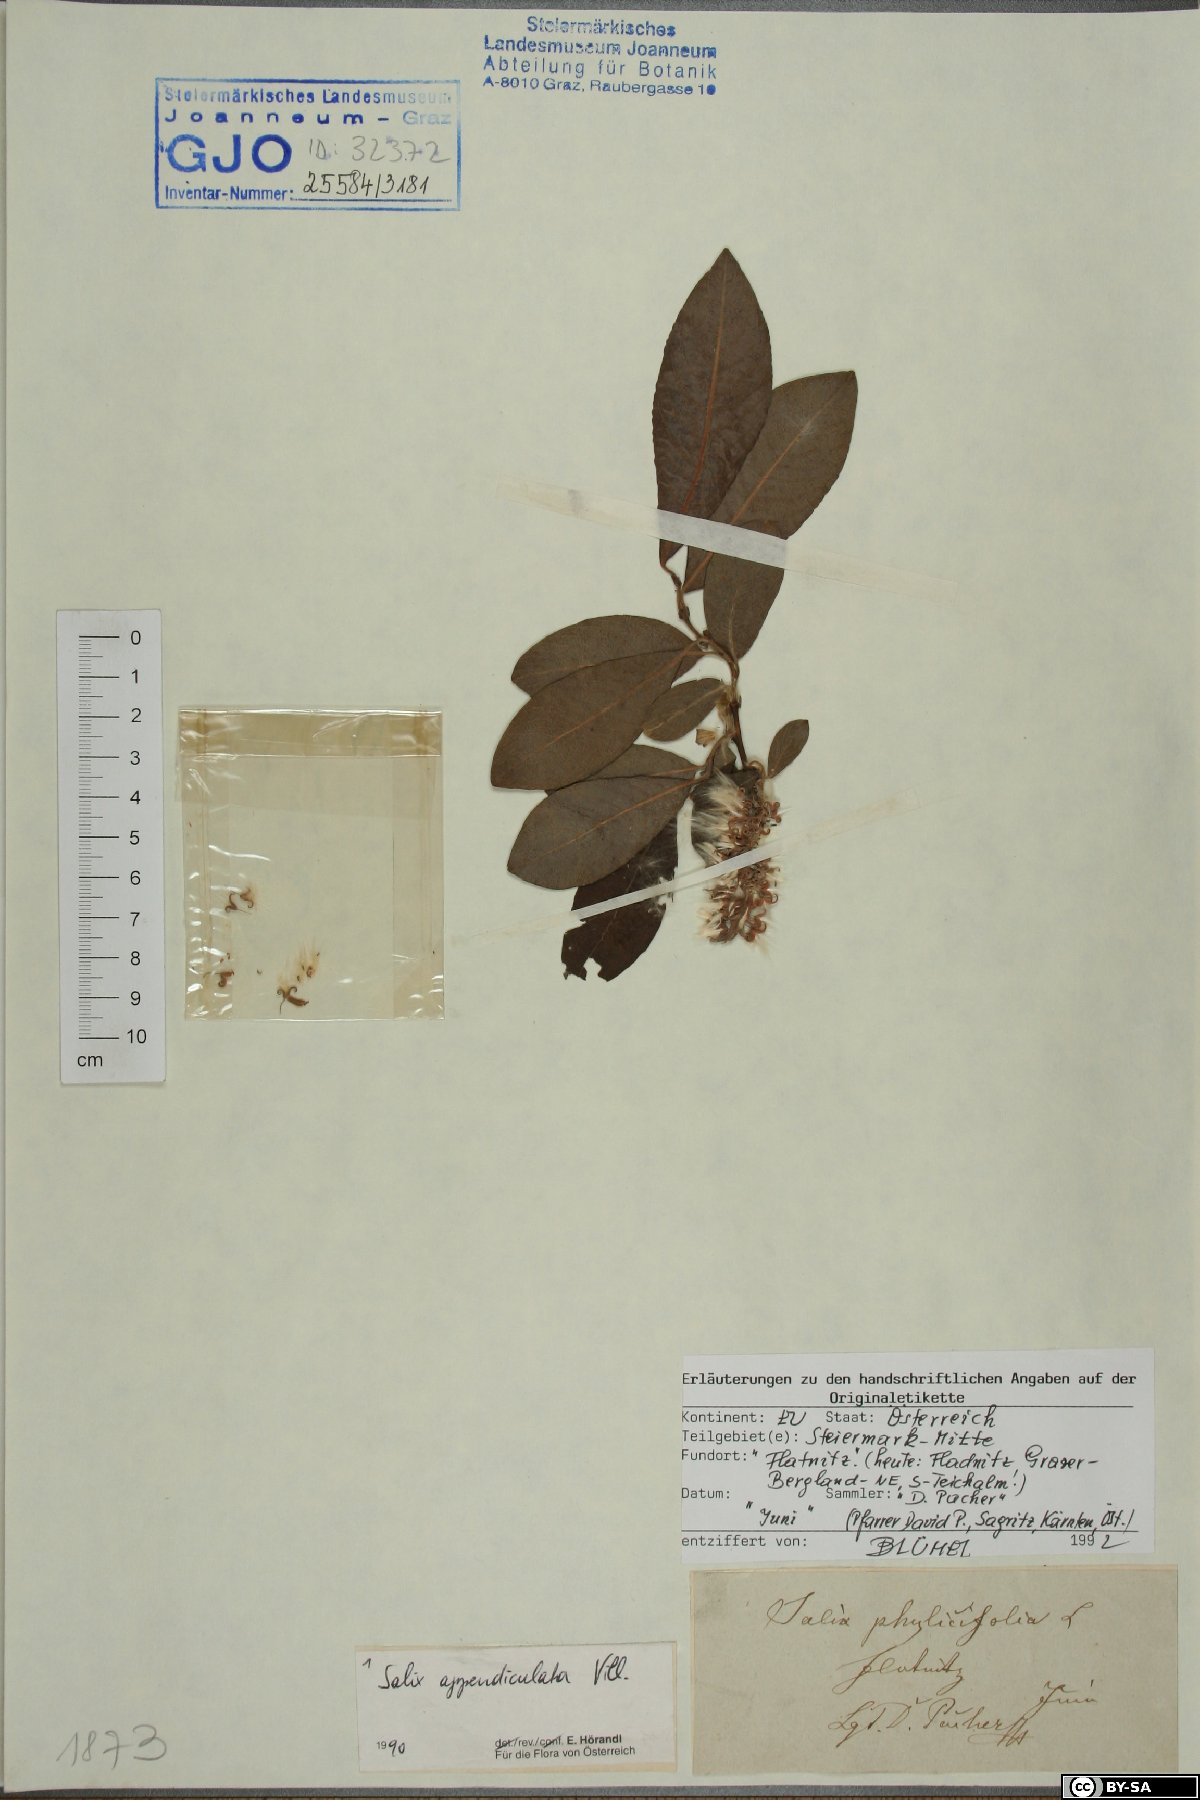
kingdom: Plantae
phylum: Tracheophyta
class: Magnoliopsida
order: Malpighiales
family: Salicaceae
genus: Salix
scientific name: Salix appendiculata
